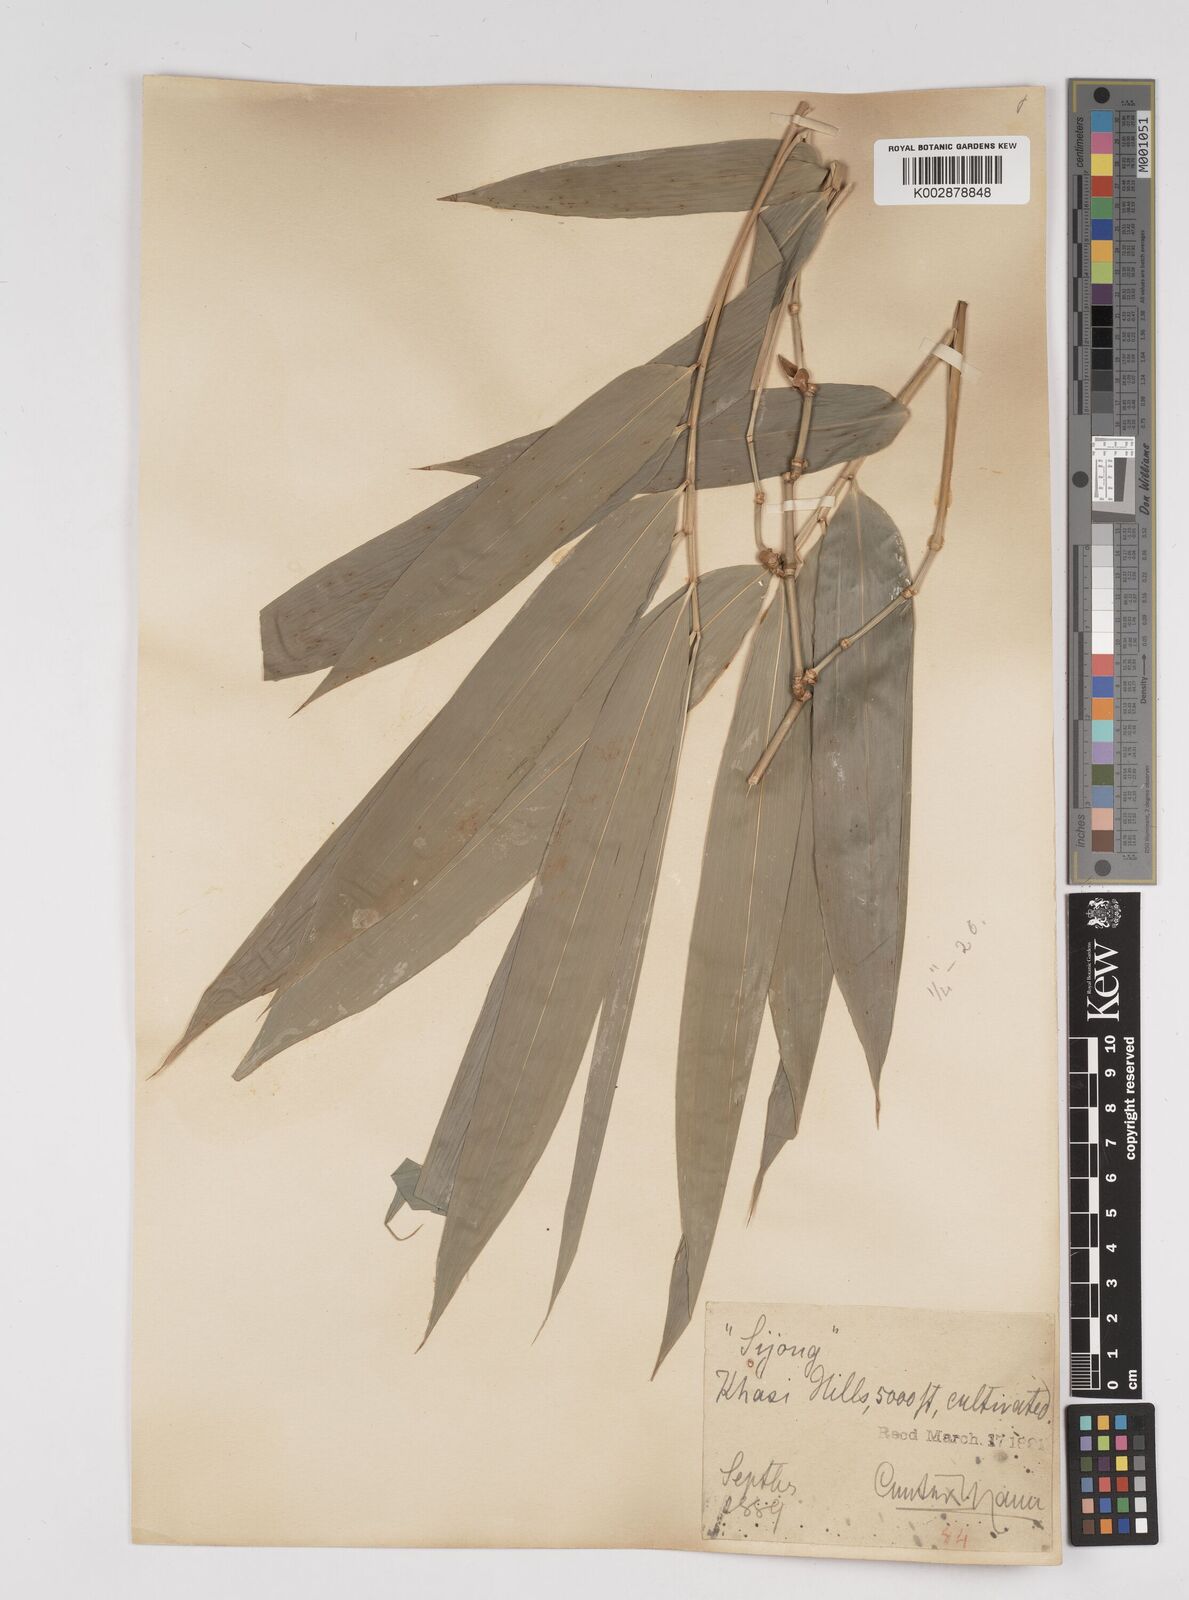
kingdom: Plantae
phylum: Tracheophyta
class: Liliopsida
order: Poales
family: Poaceae
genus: Dendrocalamus
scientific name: Dendrocalamus hookeri
